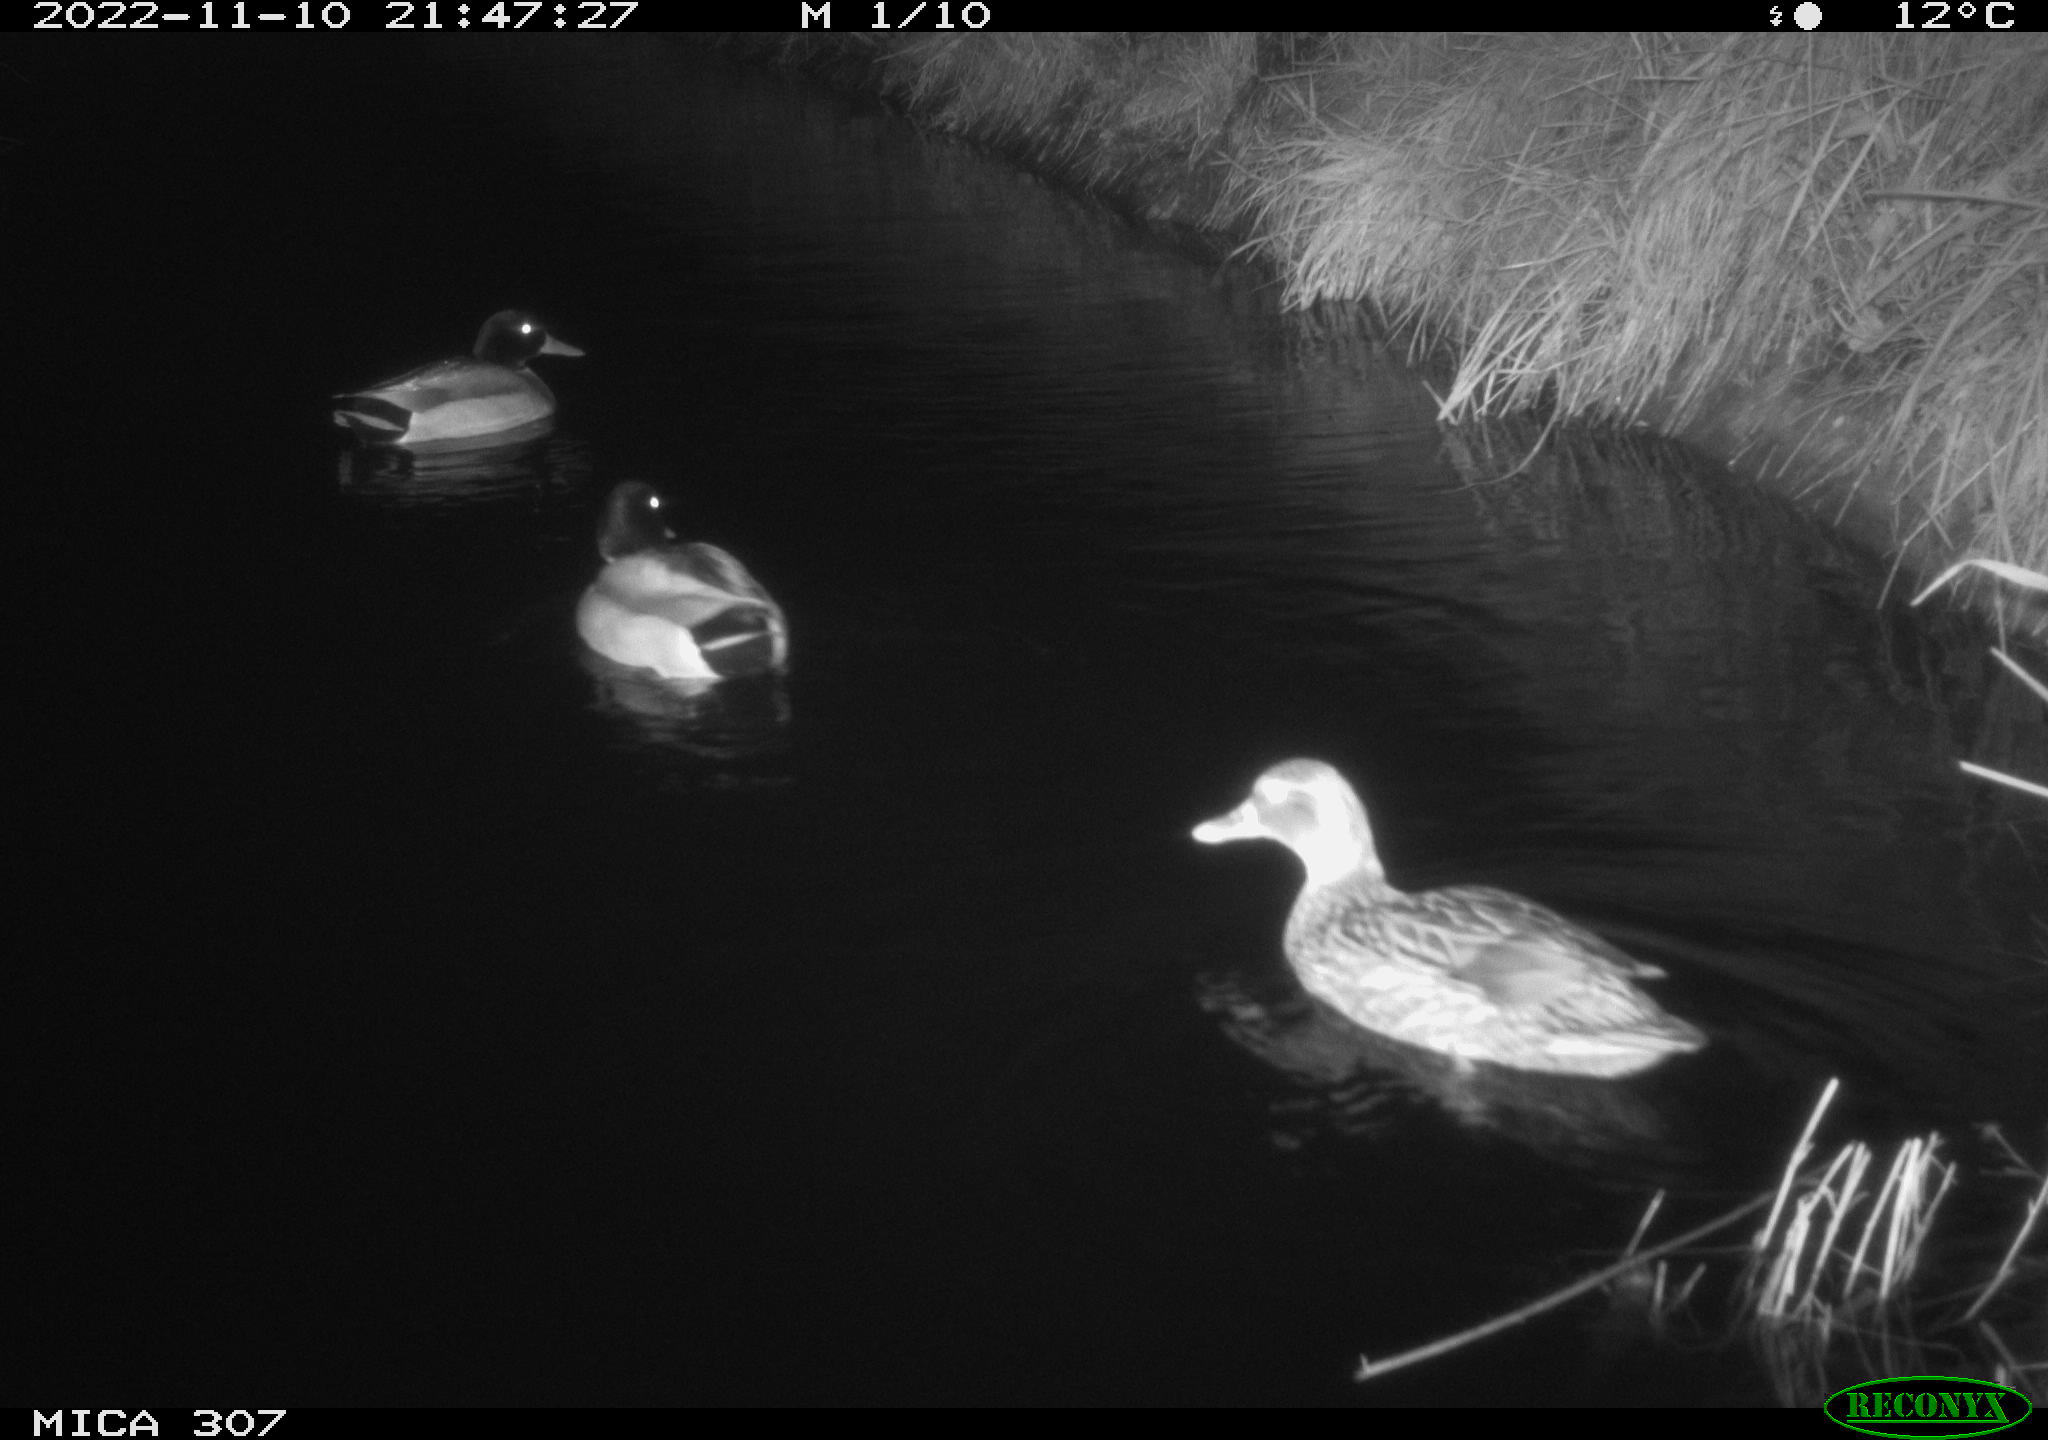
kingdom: Animalia
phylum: Chordata
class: Aves
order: Anseriformes
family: Anatidae
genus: Anas
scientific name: Anas
